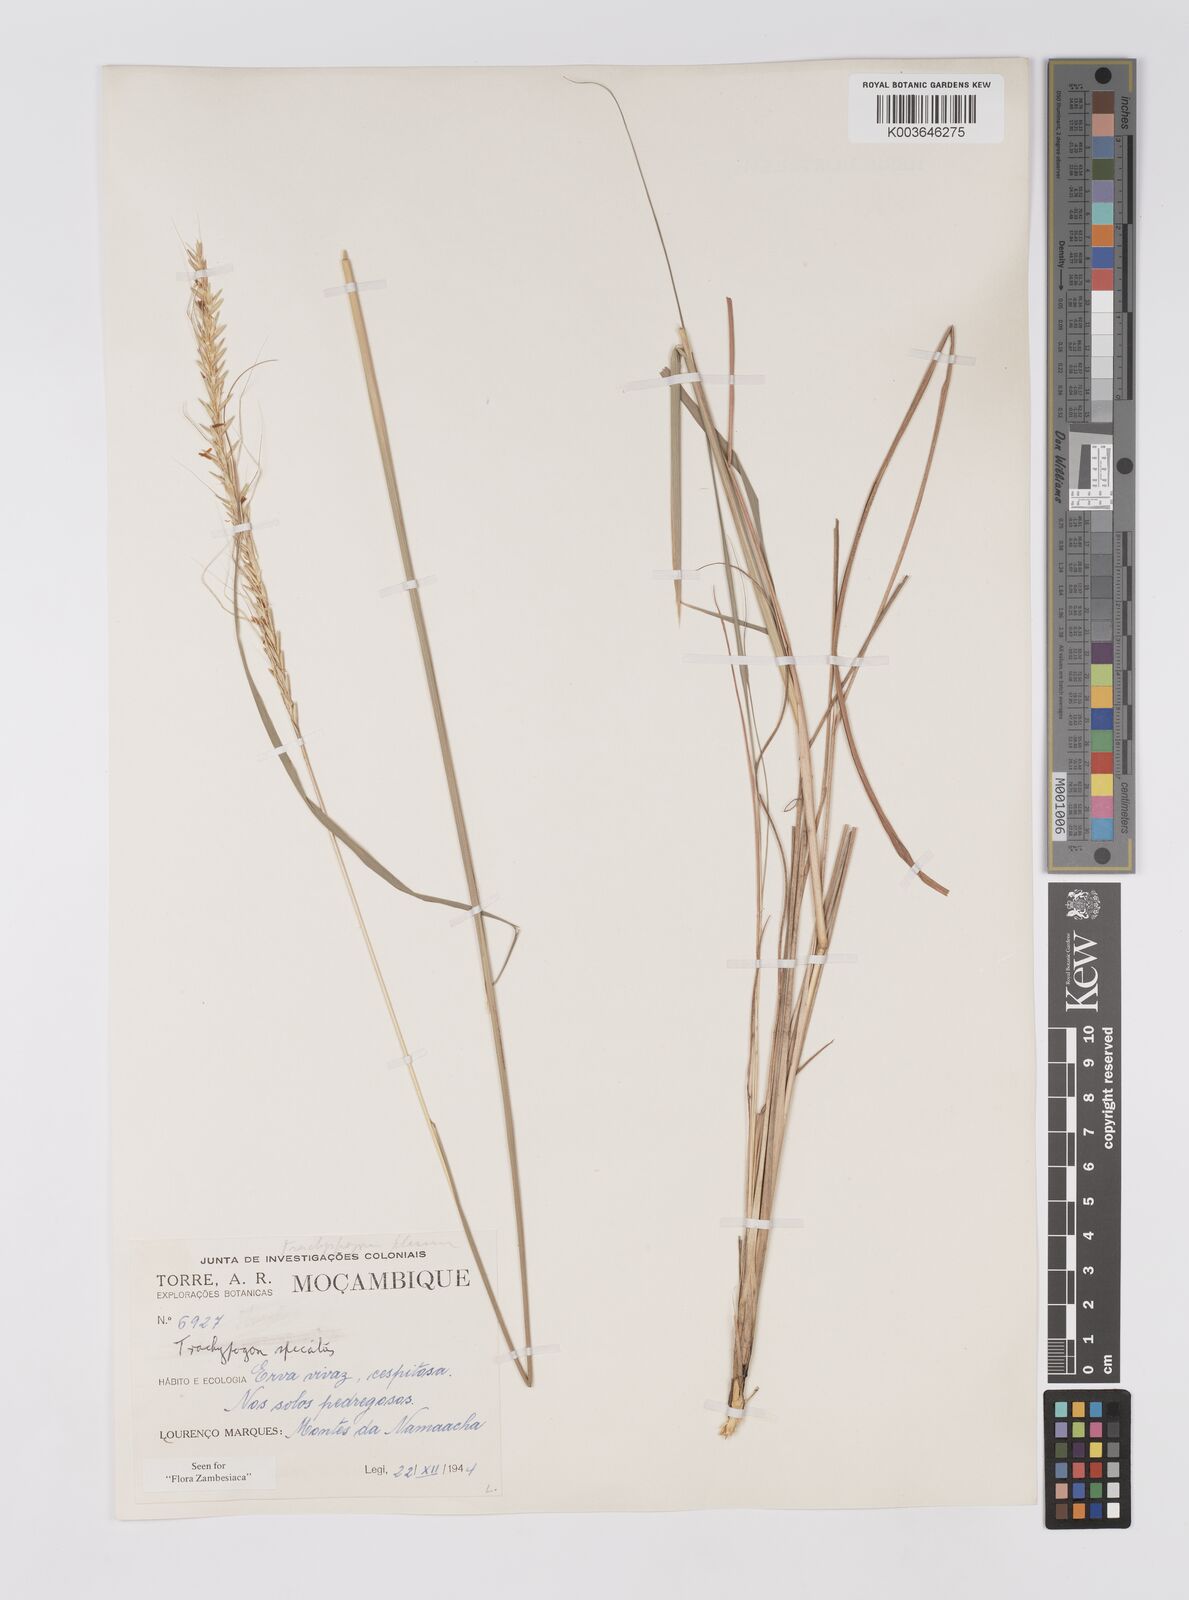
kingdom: Plantae
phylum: Tracheophyta
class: Liliopsida
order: Poales
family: Poaceae
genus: Trachypogon
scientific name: Trachypogon spicatus
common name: Crinkle-awn
